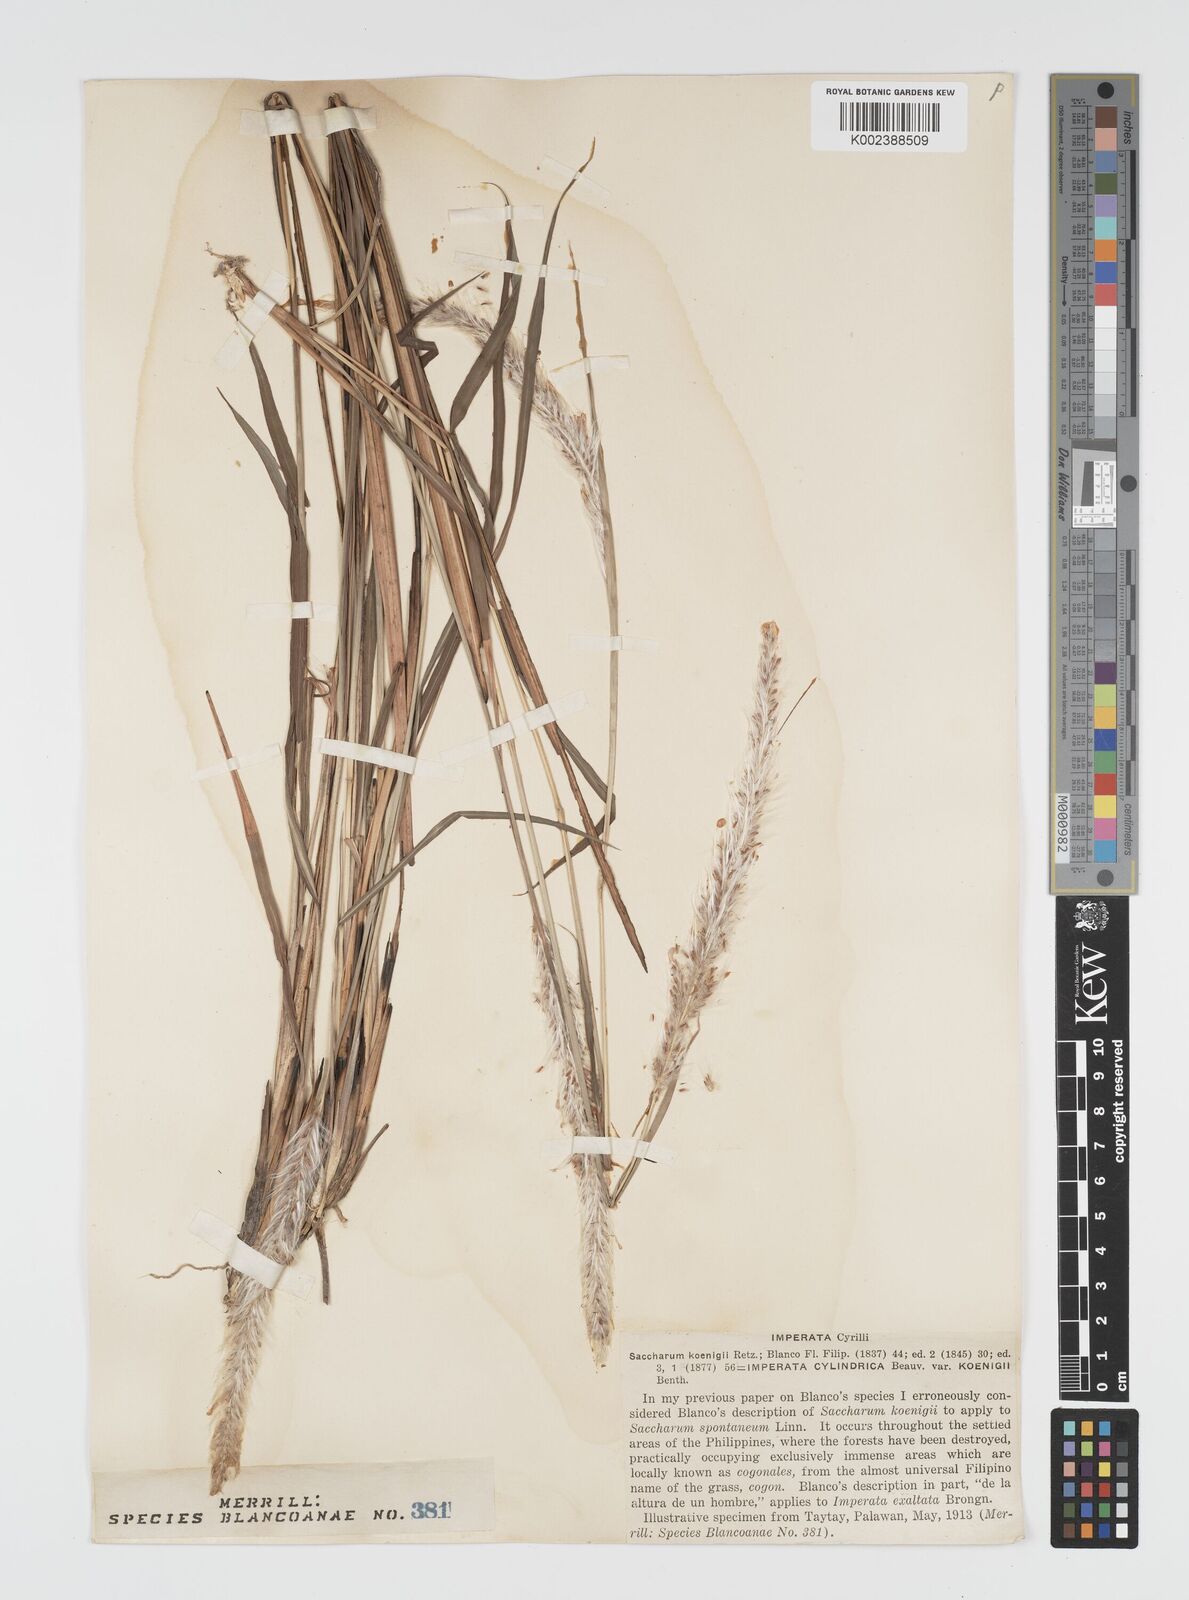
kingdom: Plantae
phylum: Tracheophyta
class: Liliopsida
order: Poales
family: Poaceae
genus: Imperata
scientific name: Imperata cylindrica
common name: Cogongrass
